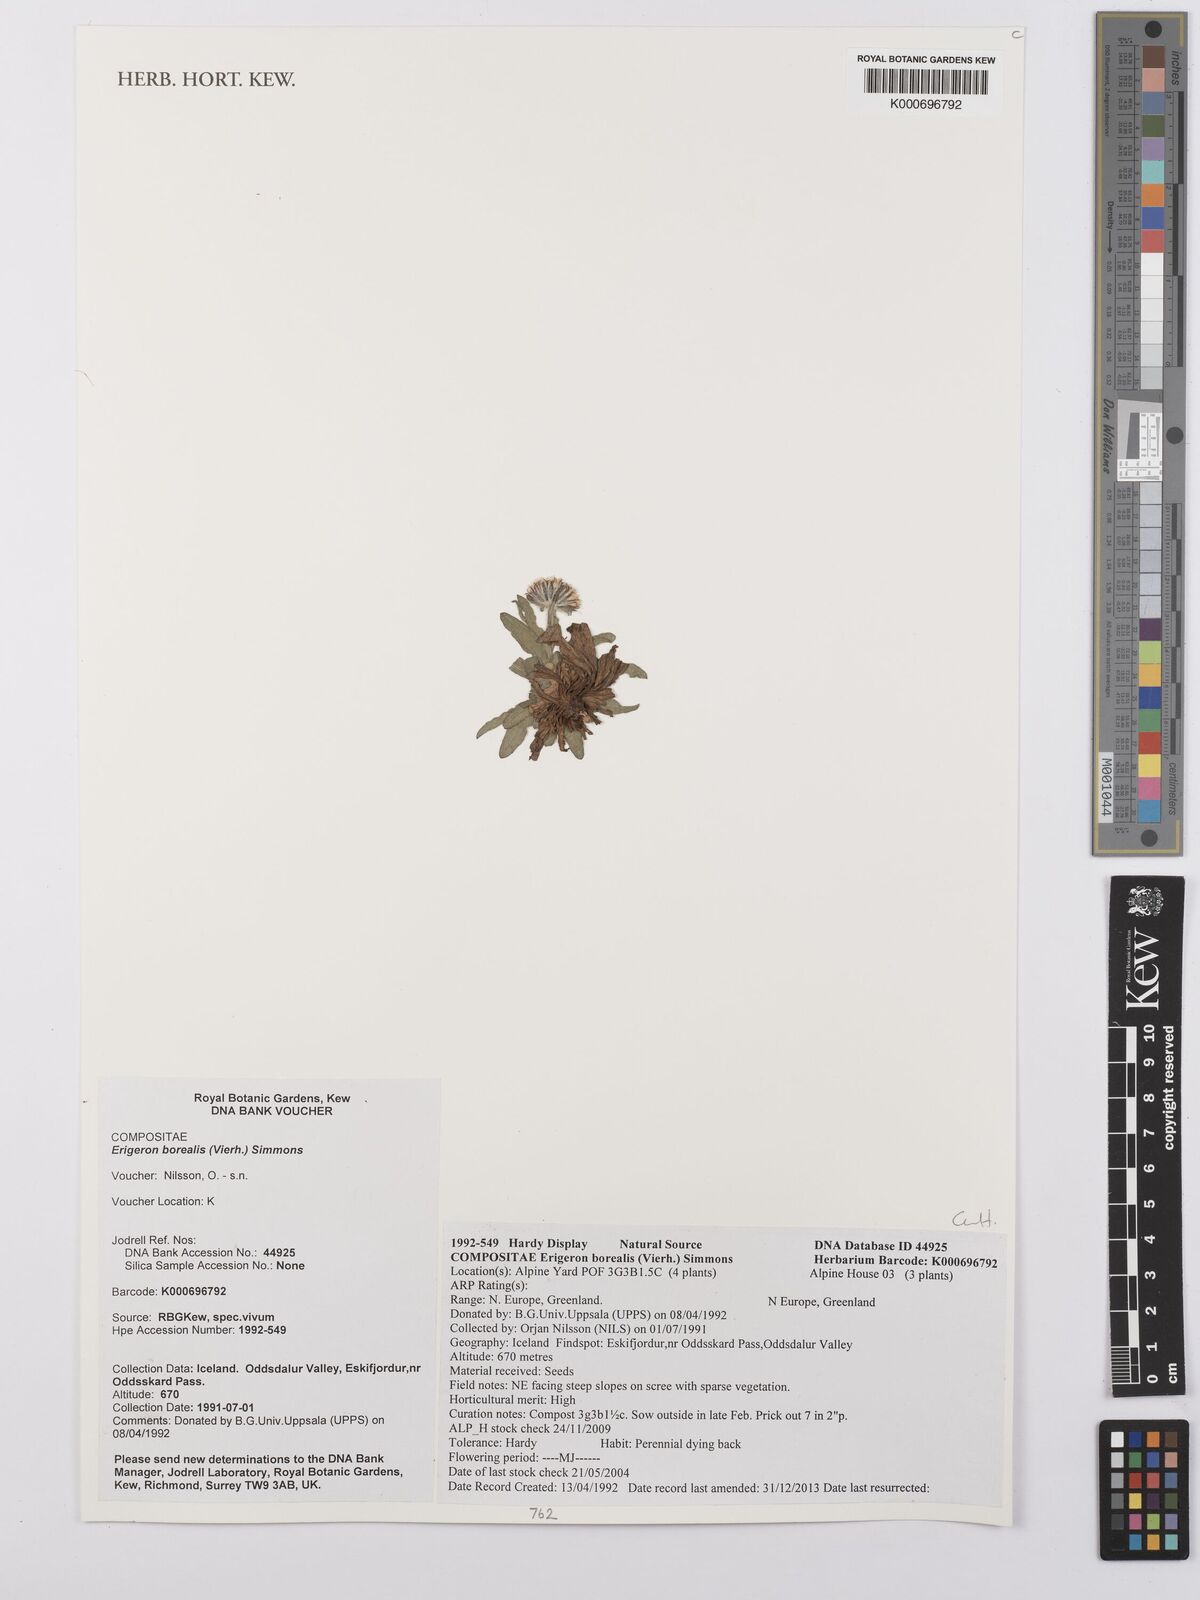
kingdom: Plantae
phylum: Tracheophyta
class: Magnoliopsida
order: Asterales
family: Asteraceae
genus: Erigeron
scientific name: Erigeron borealis
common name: Alpine fleabane
